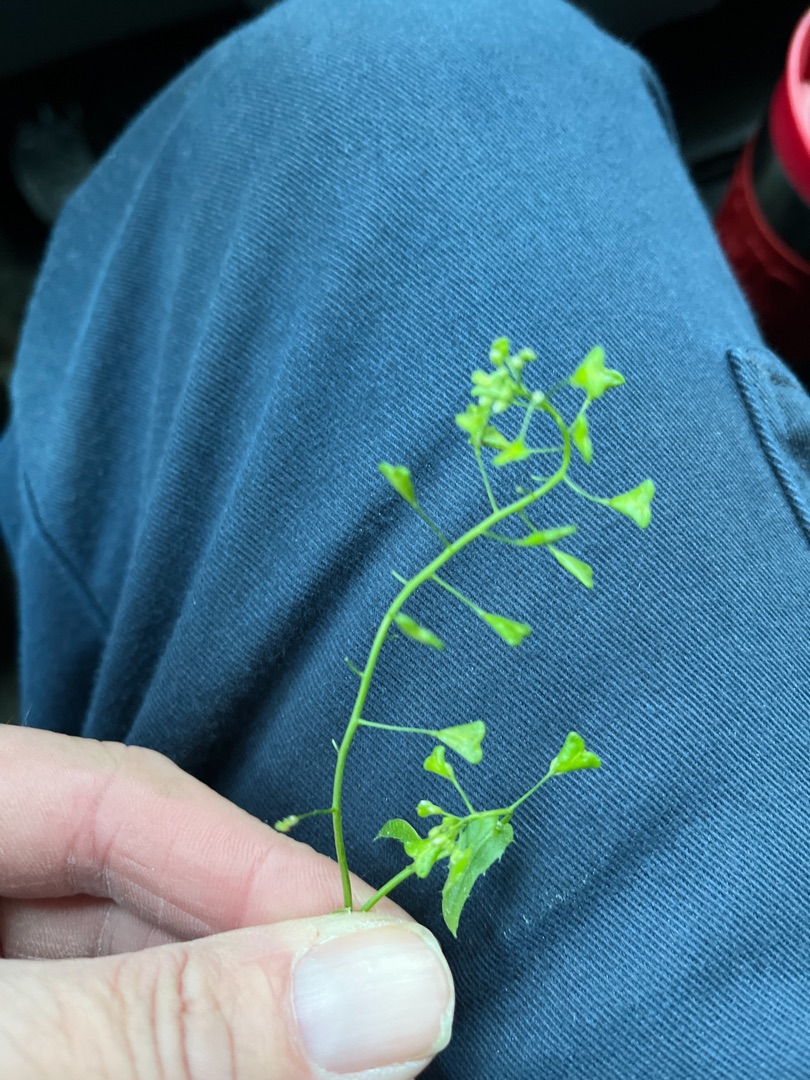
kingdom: Plantae
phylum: Tracheophyta
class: Magnoliopsida
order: Brassicales
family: Brassicaceae
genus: Capsella
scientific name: Capsella bursa-pastoris
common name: Hyrdetaske
